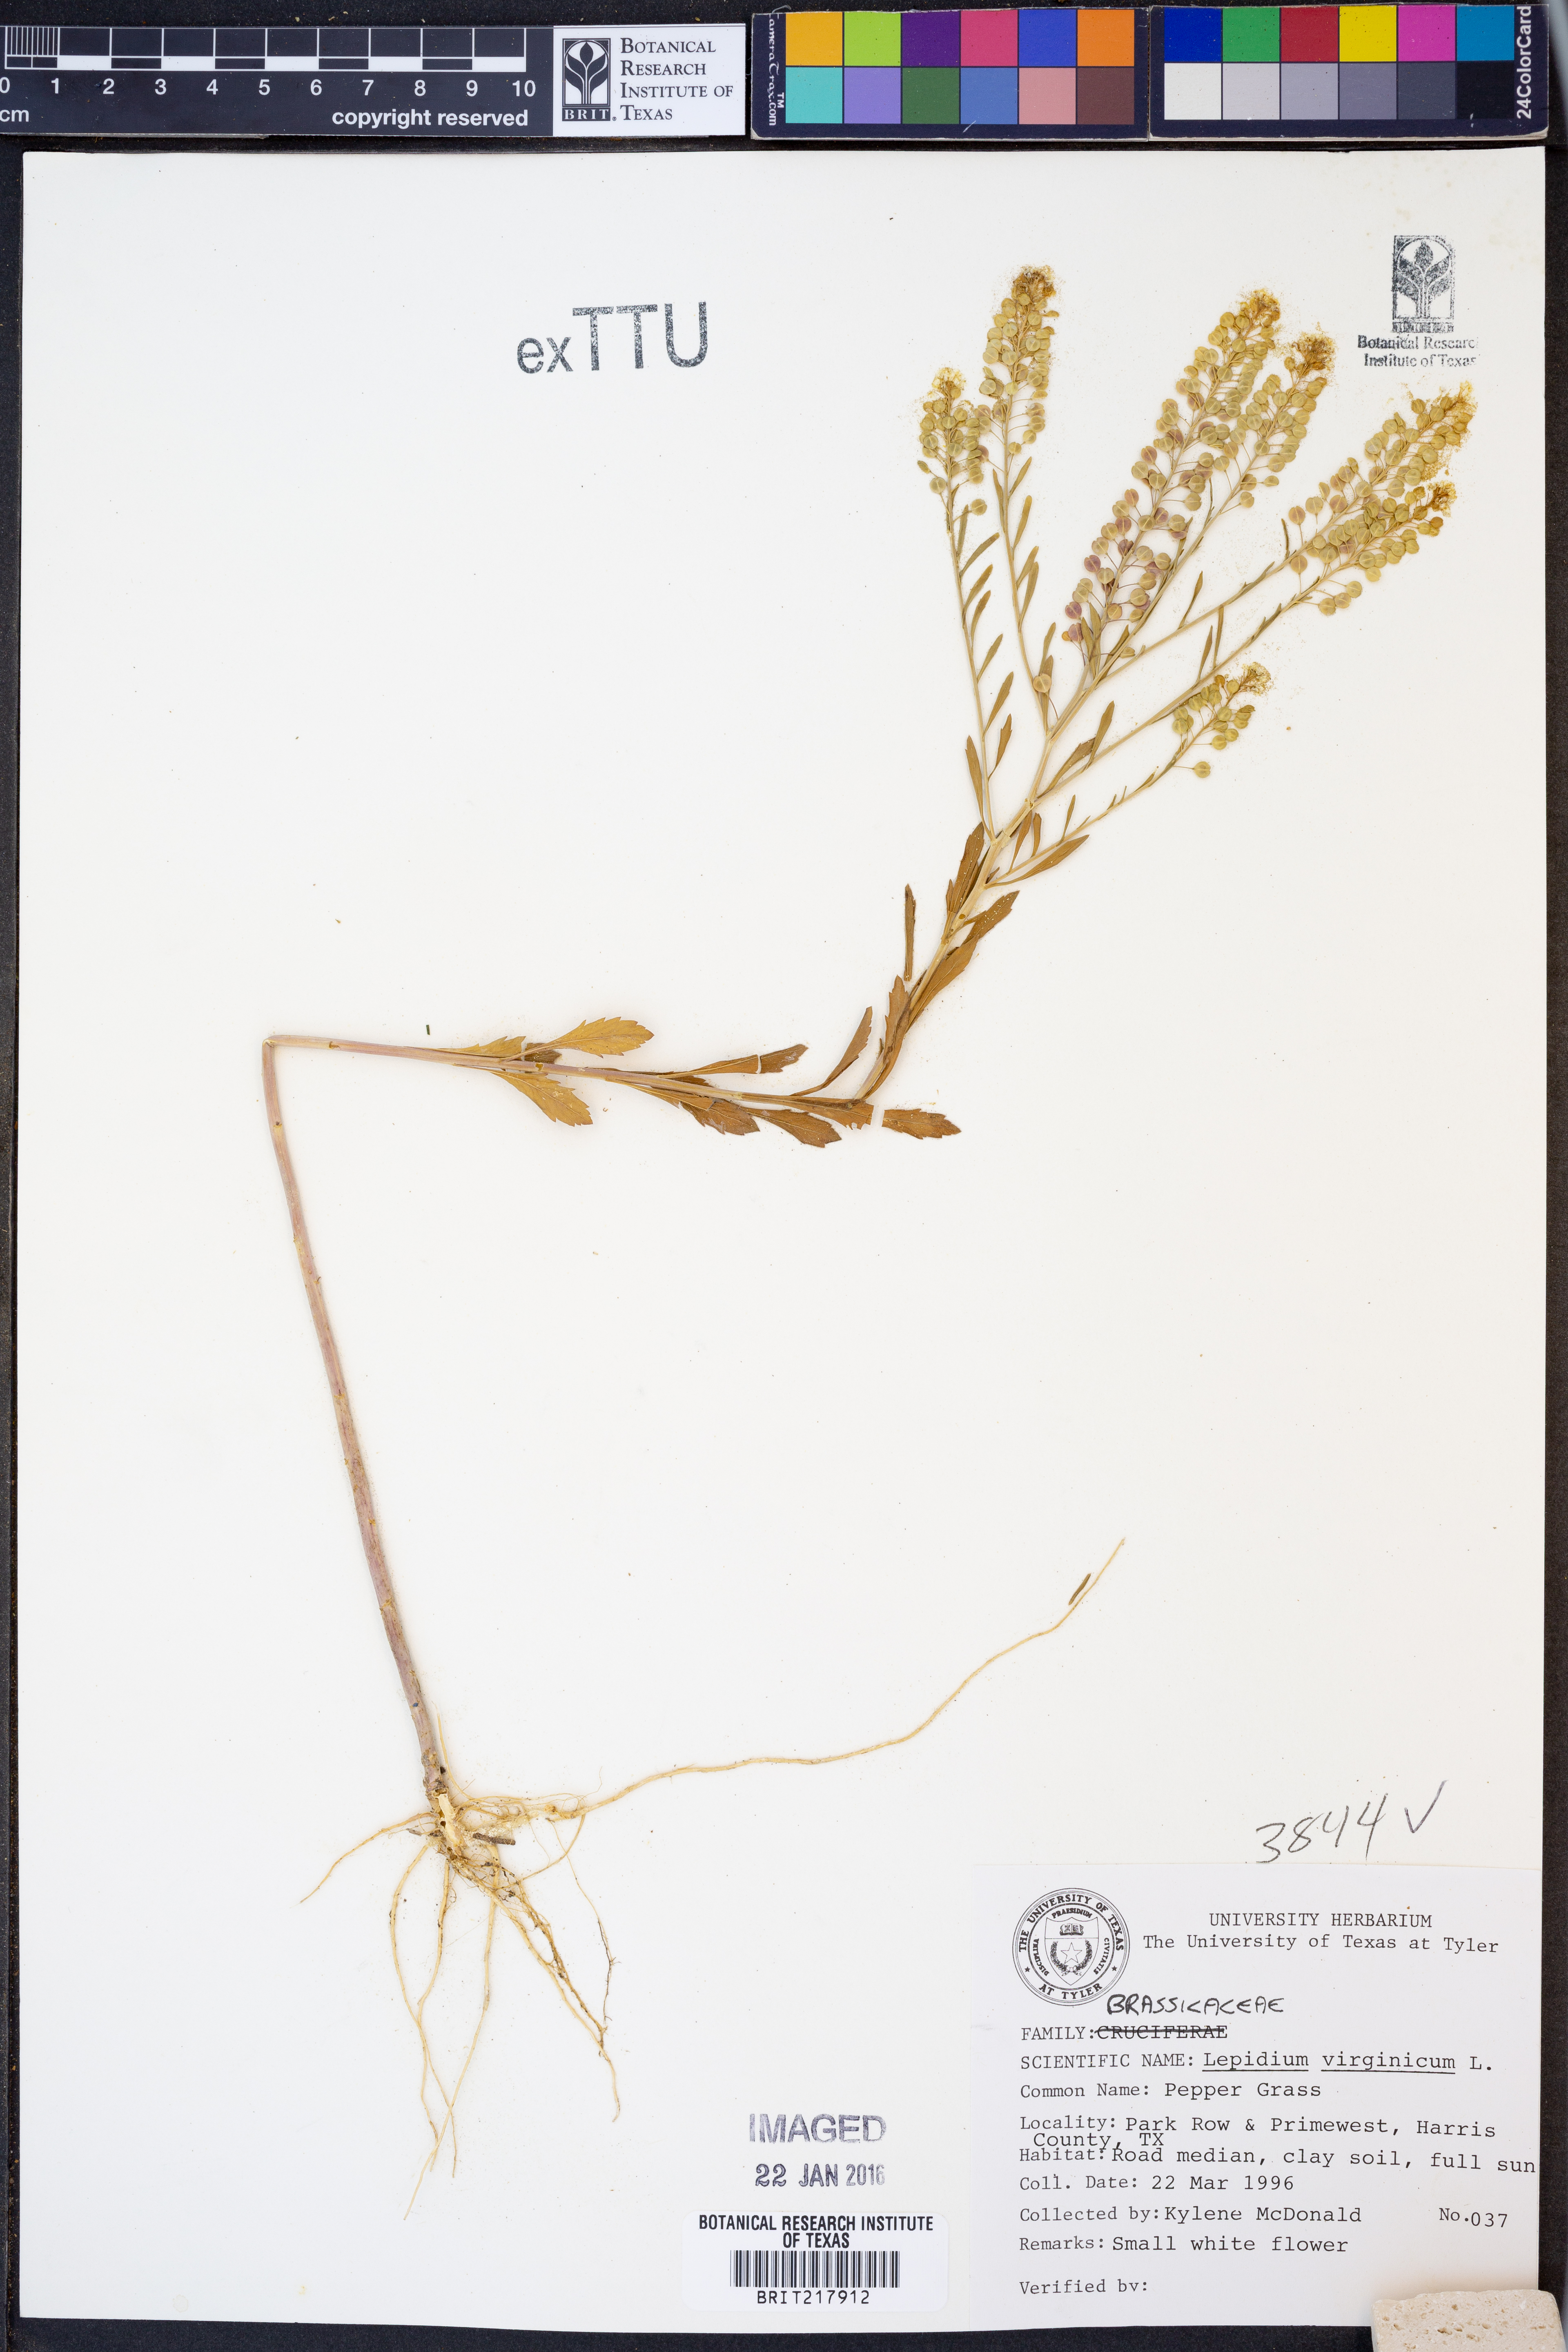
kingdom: Plantae
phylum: Tracheophyta
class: Magnoliopsida
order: Brassicales
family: Brassicaceae
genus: Lepidium
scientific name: Lepidium virginicum
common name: Least pepperwort
